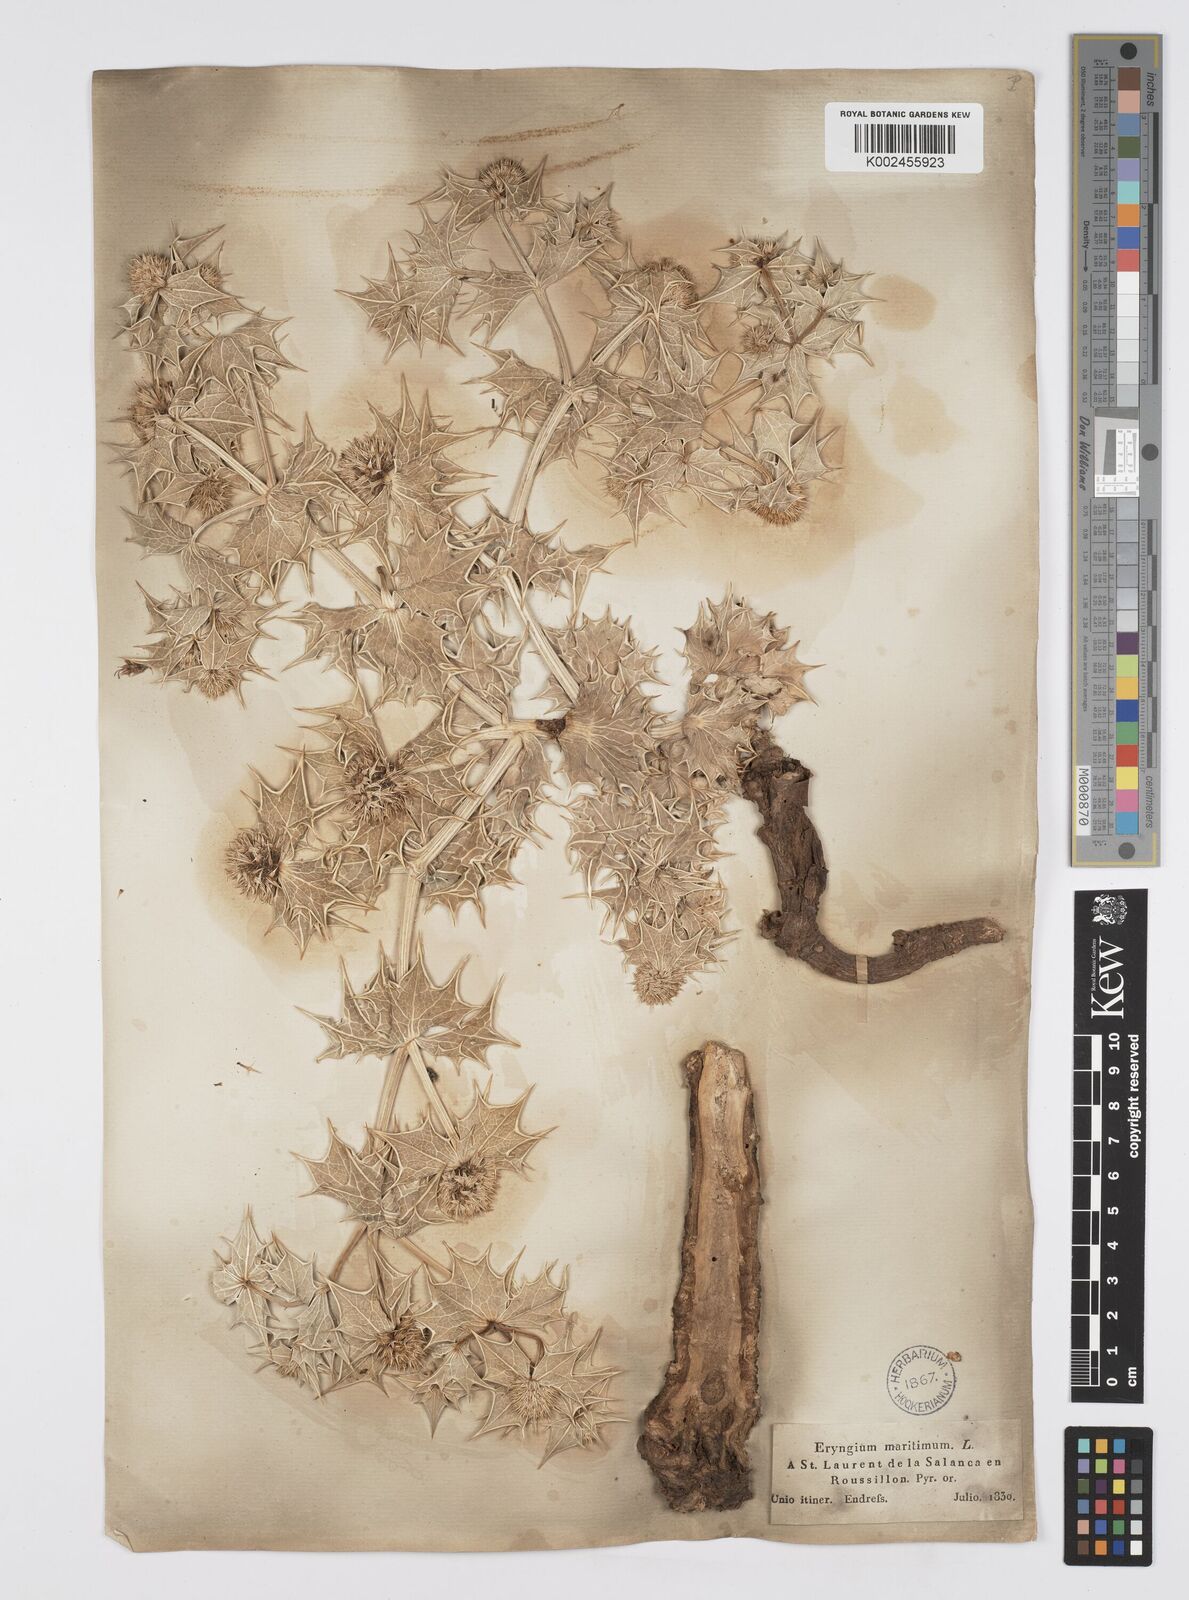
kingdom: Plantae
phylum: Tracheophyta
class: Magnoliopsida
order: Apiales
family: Apiaceae
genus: Eryngium
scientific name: Eryngium maritimum
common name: Sea-holly
